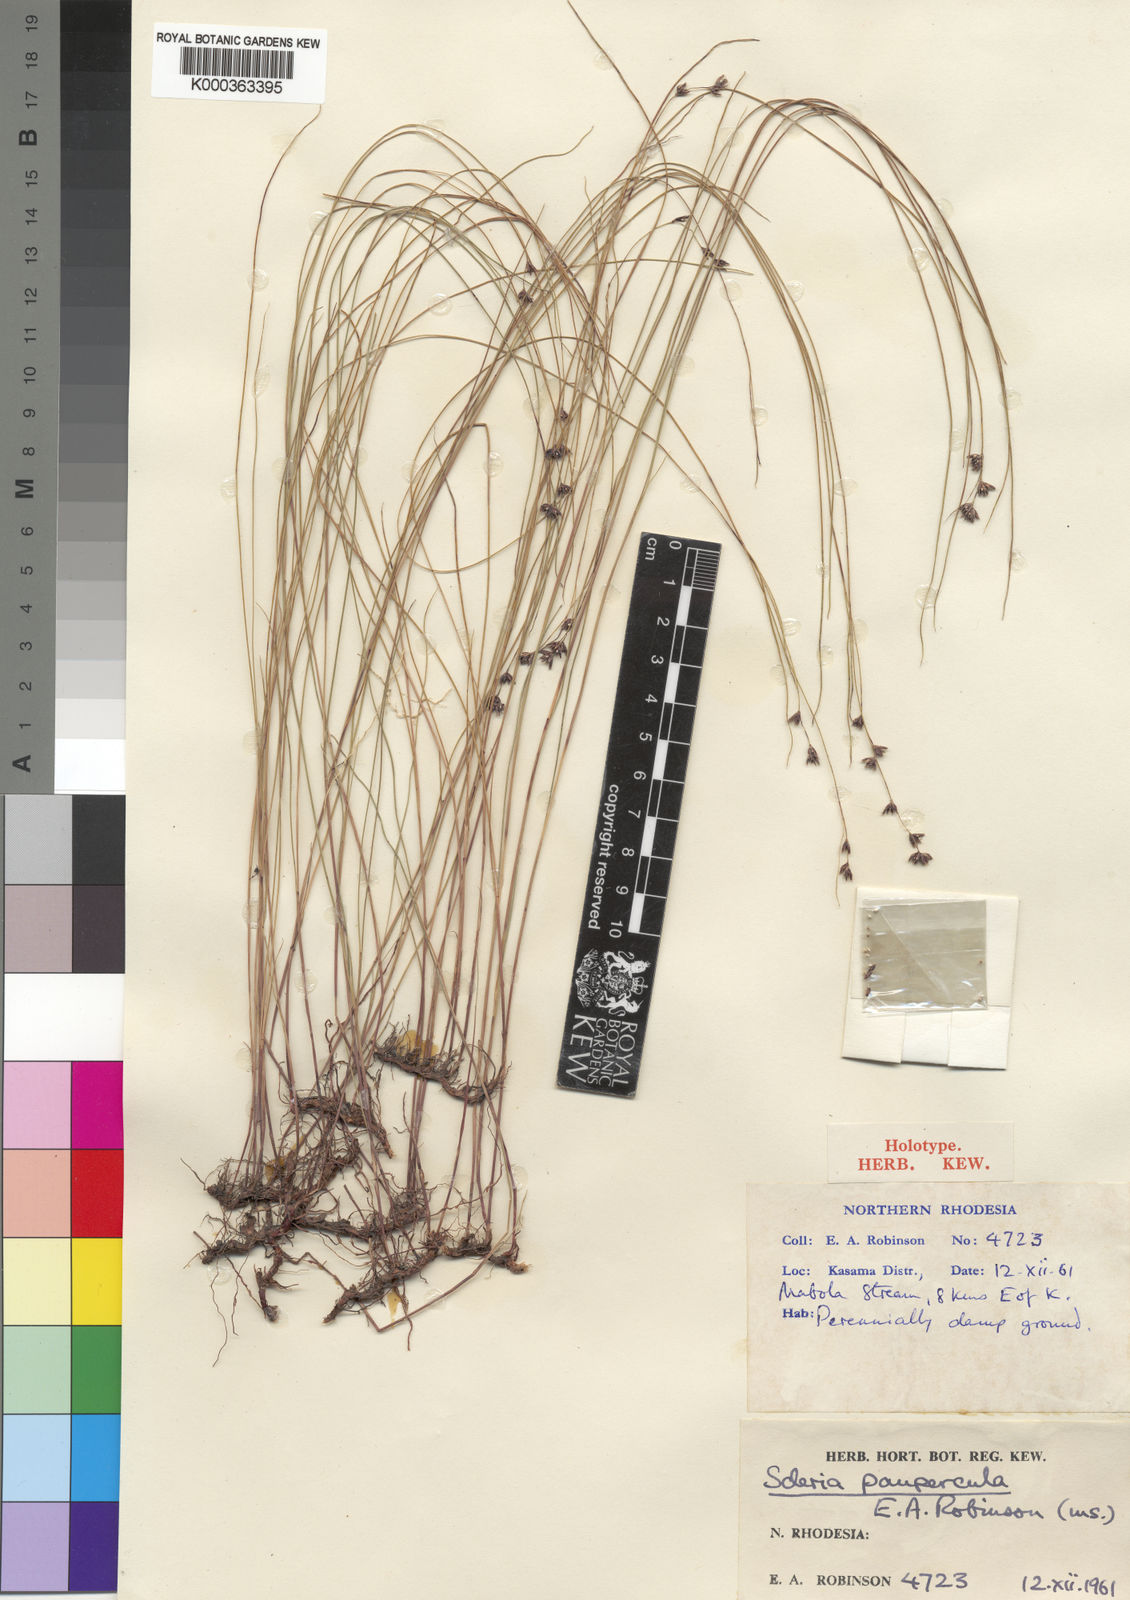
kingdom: Plantae
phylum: Tracheophyta
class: Liliopsida
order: Poales
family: Cyperaceae
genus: Scleria
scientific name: Scleria paupercula
